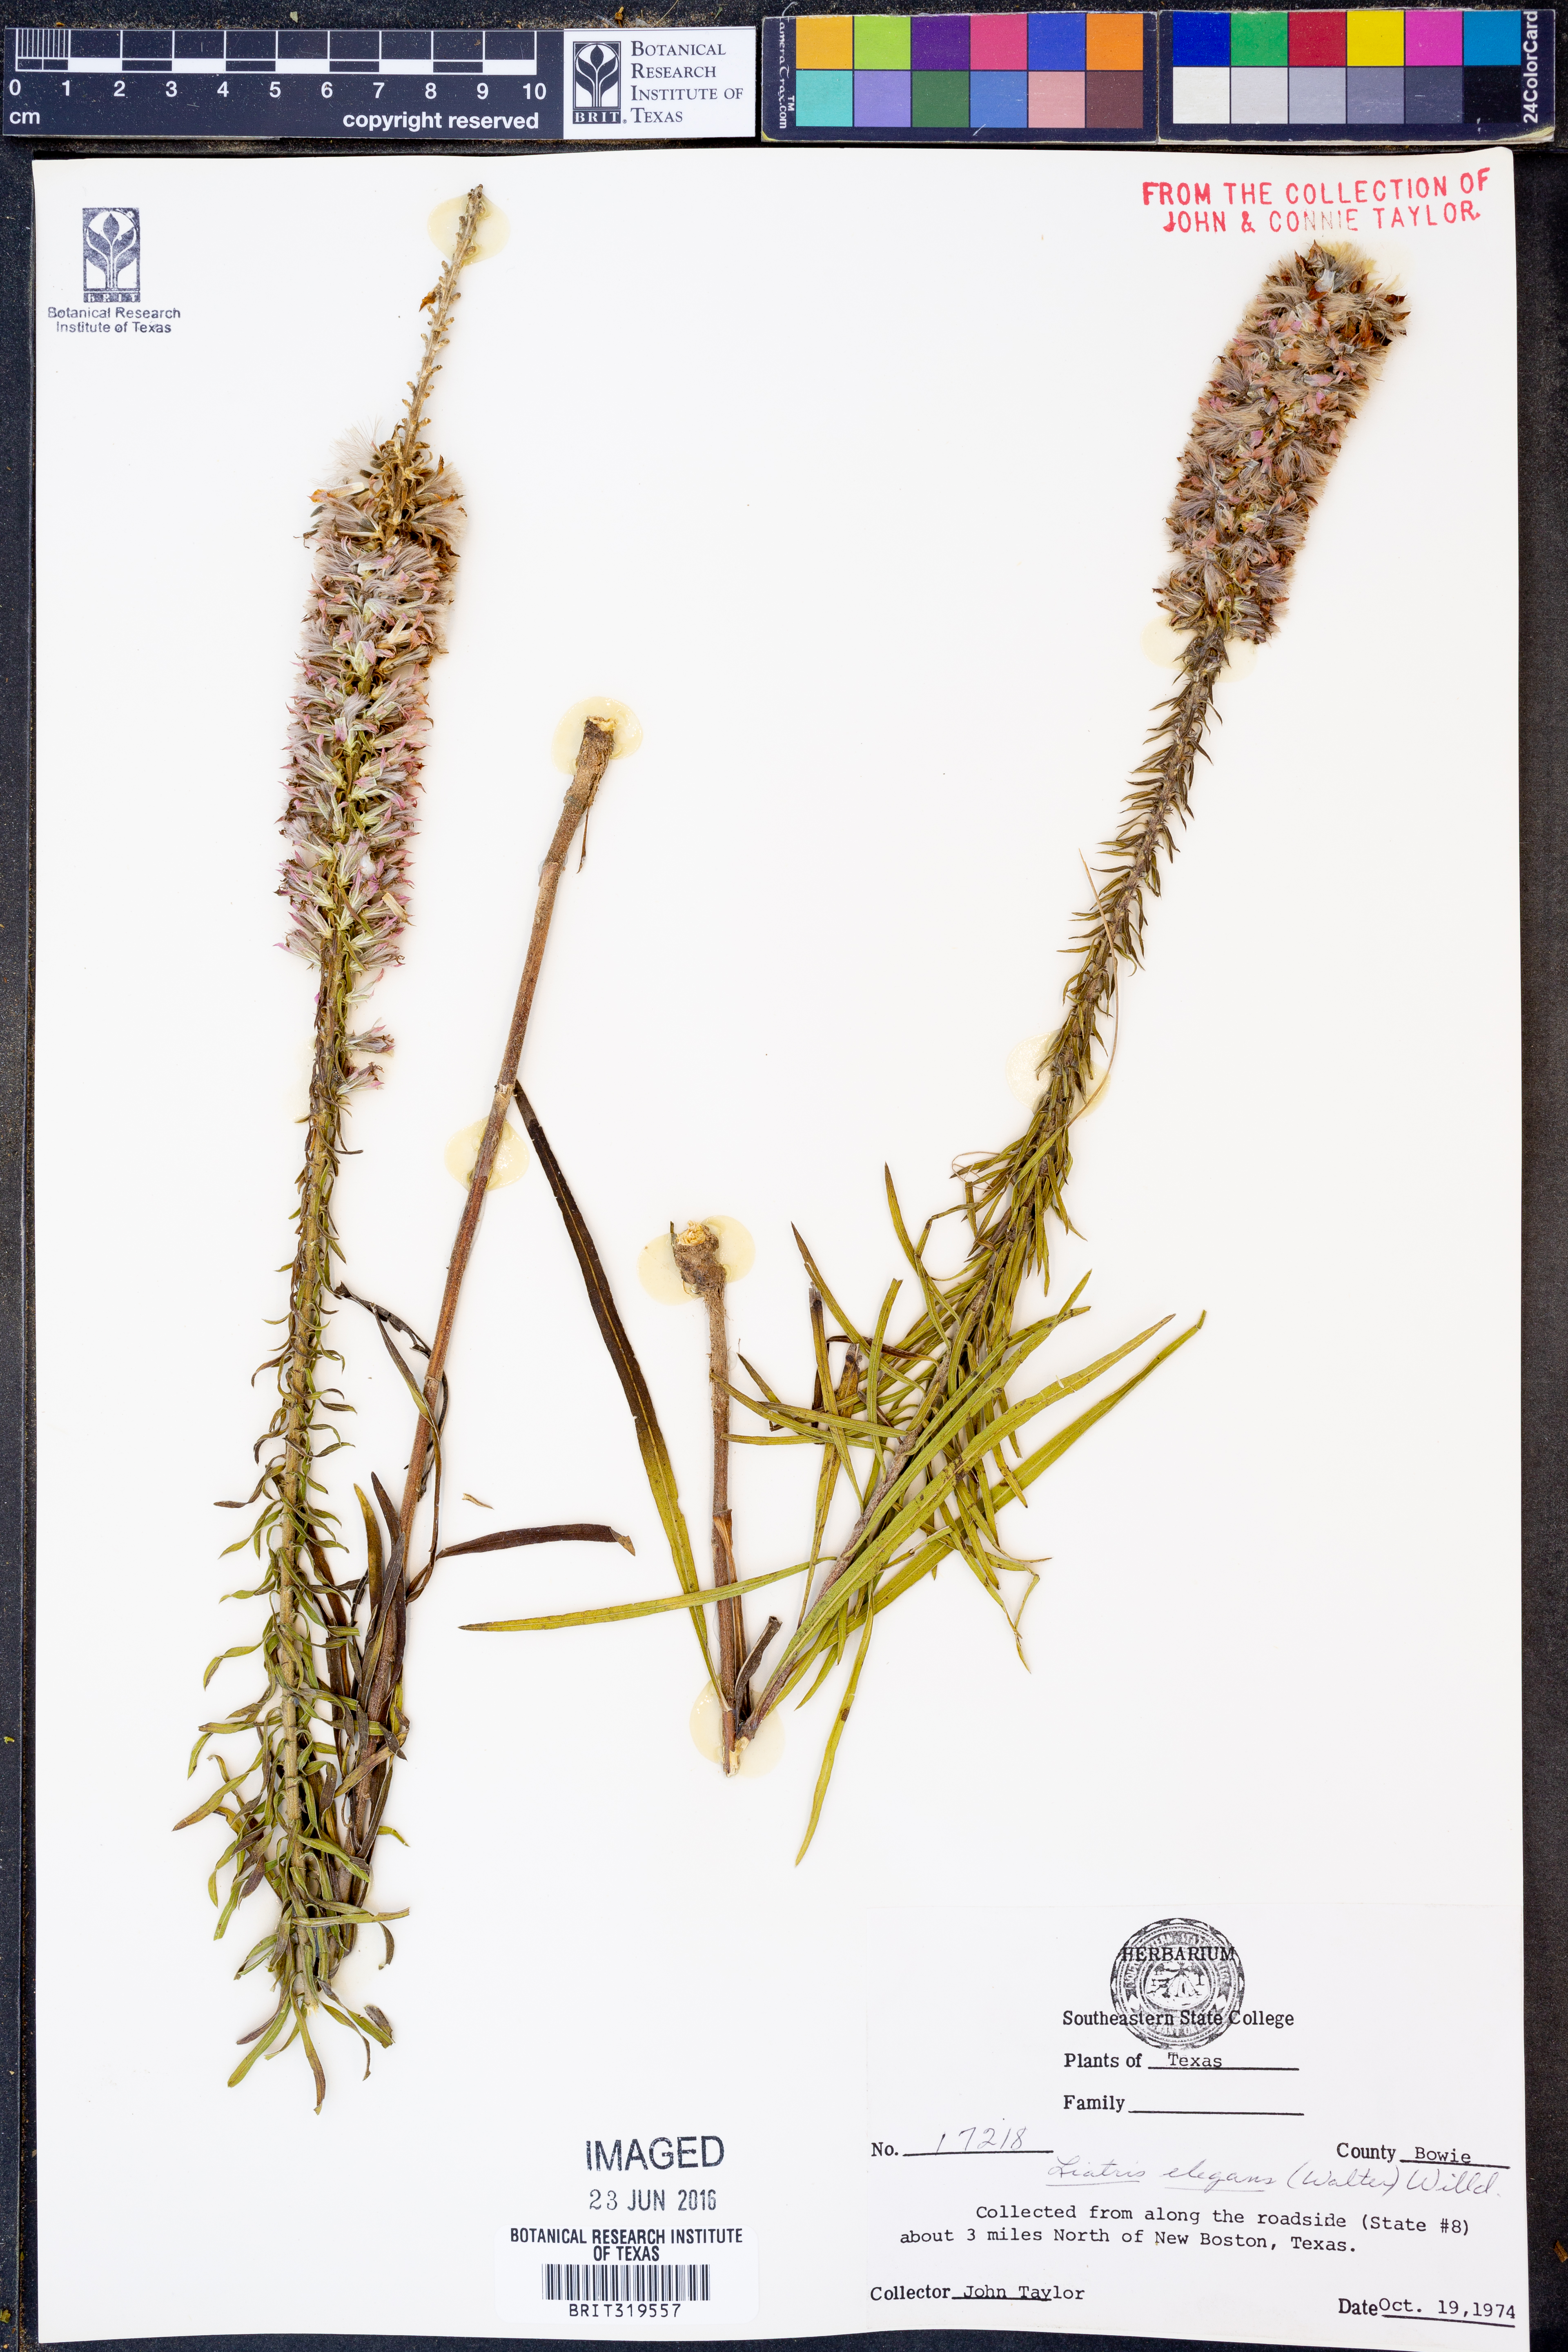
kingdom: Plantae
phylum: Tracheophyta
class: Magnoliopsida
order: Asterales
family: Asteraceae
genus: Liatris
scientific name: Liatris elegans
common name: Pinkscale gayfeather
